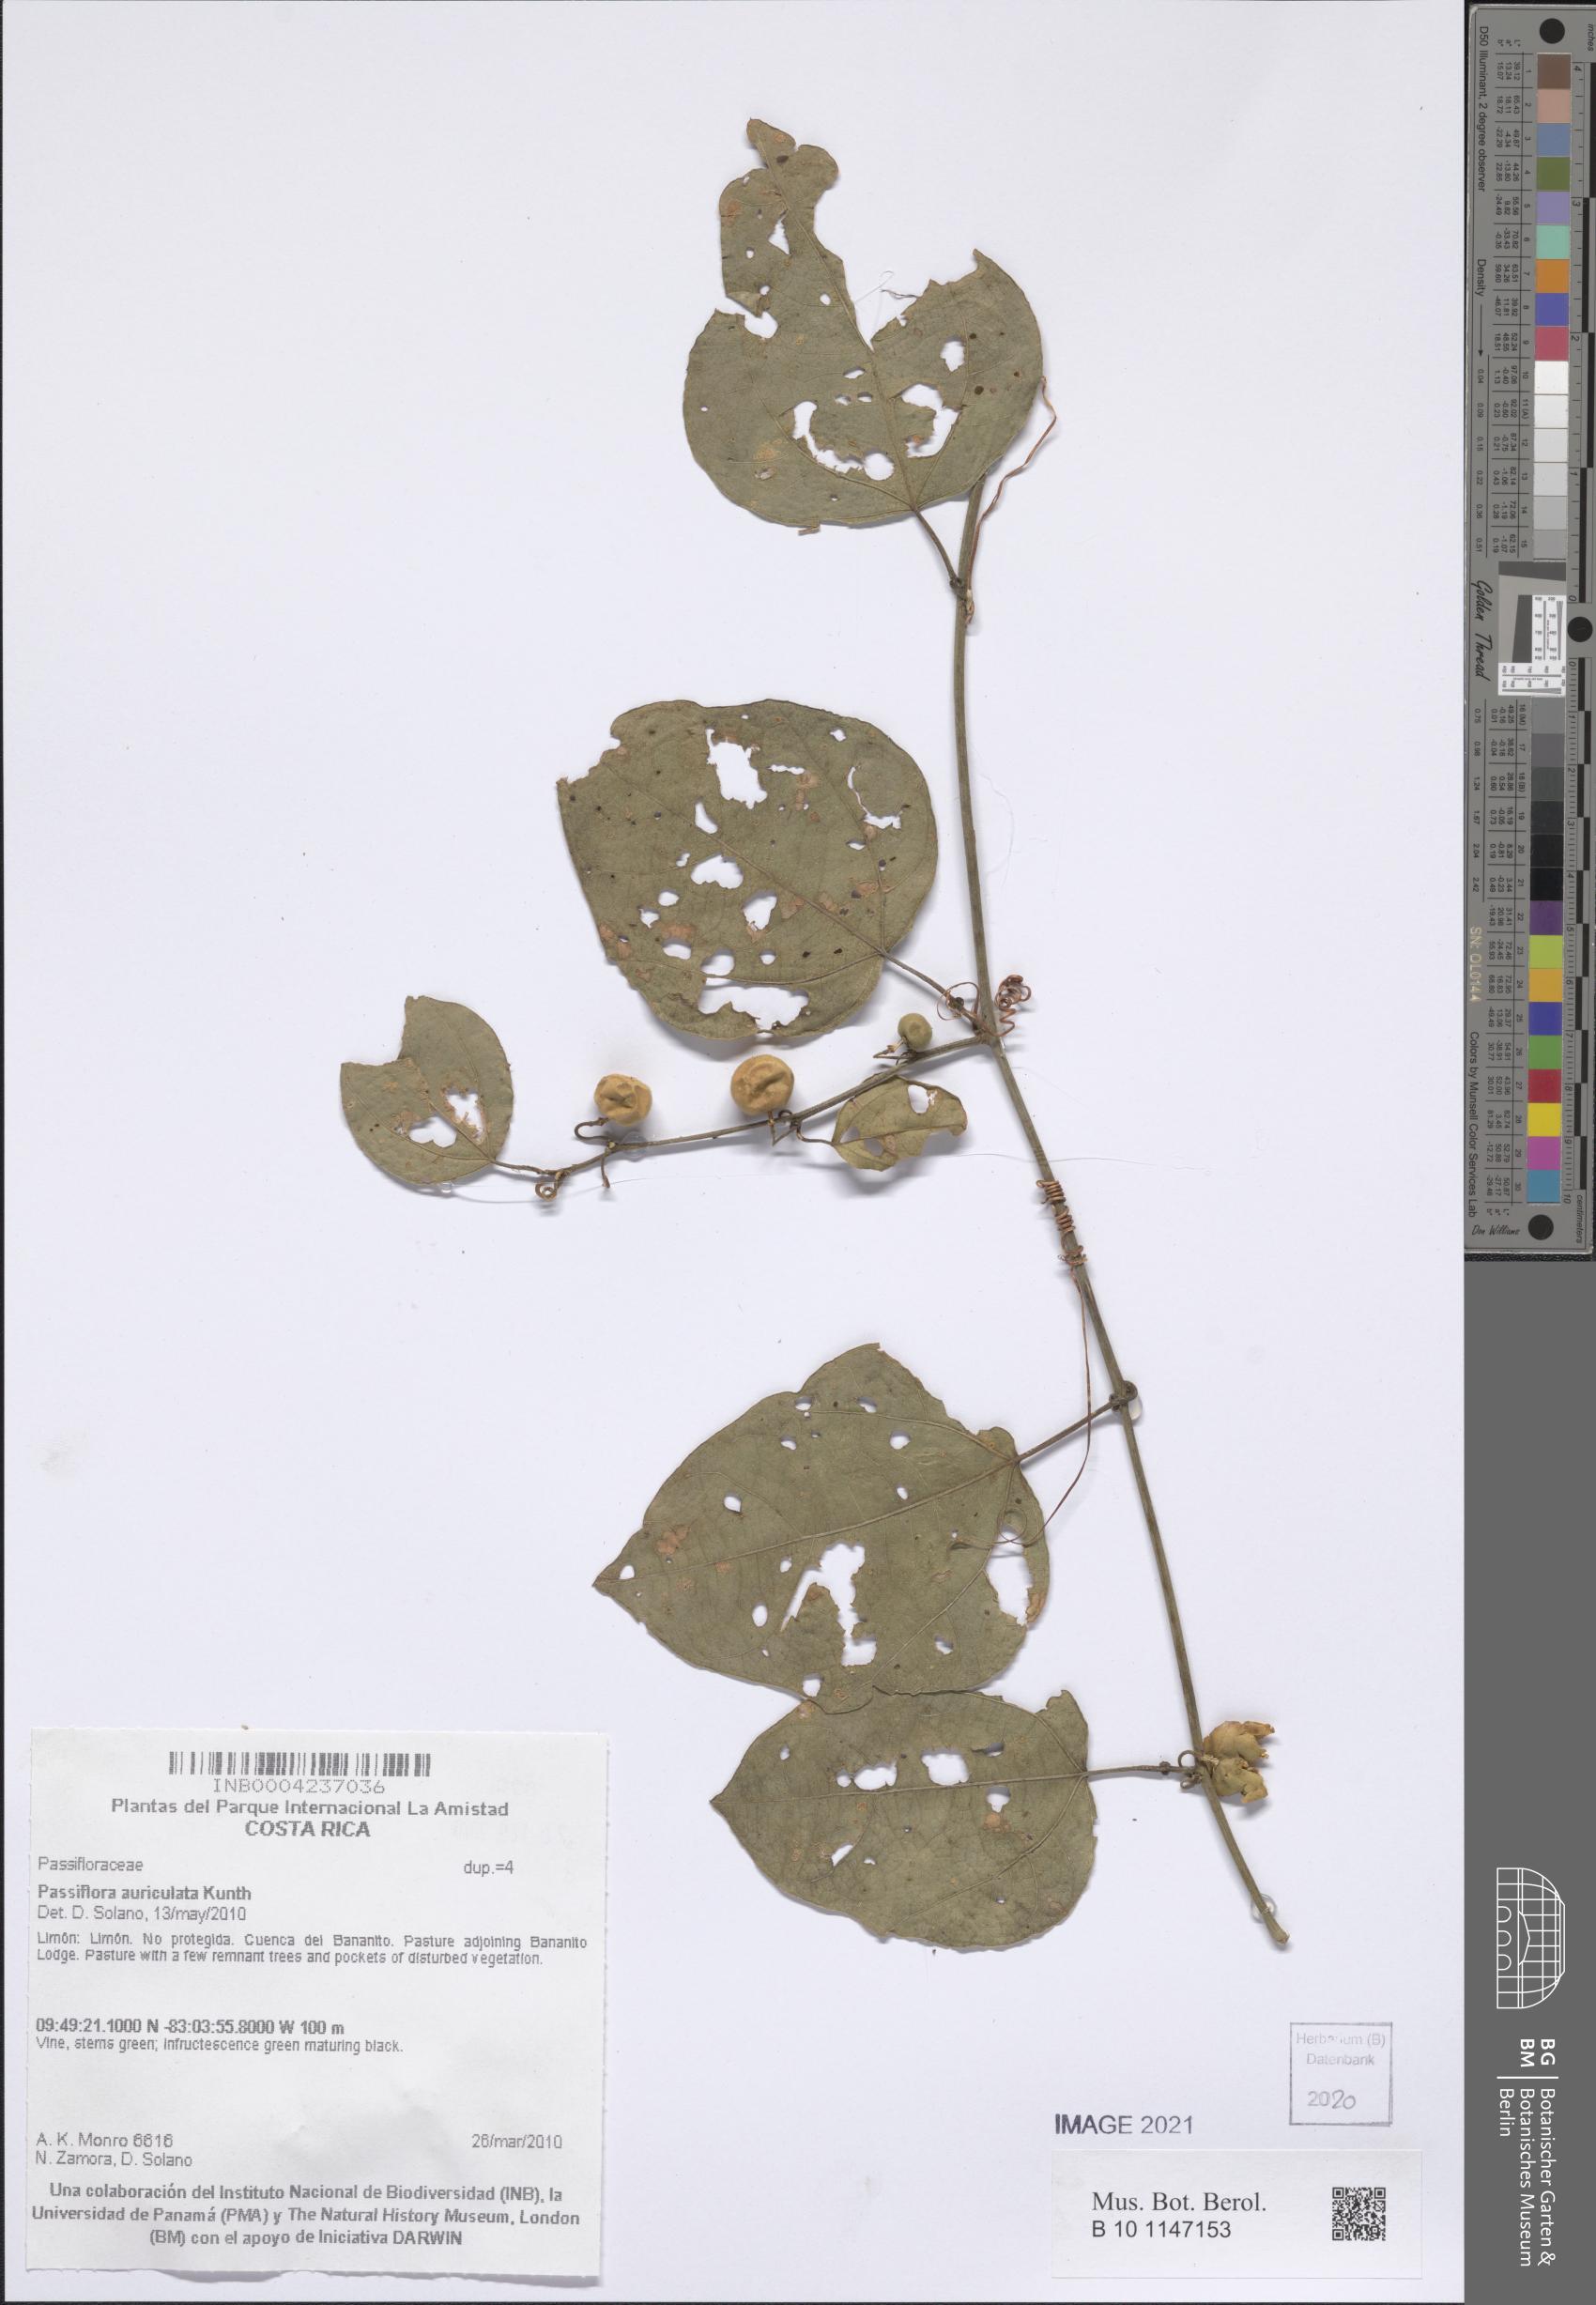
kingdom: Plantae
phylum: Tracheophyta
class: Magnoliopsida
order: Malpighiales
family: Passifloraceae
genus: Passiflora
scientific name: Passiflora auriculata
